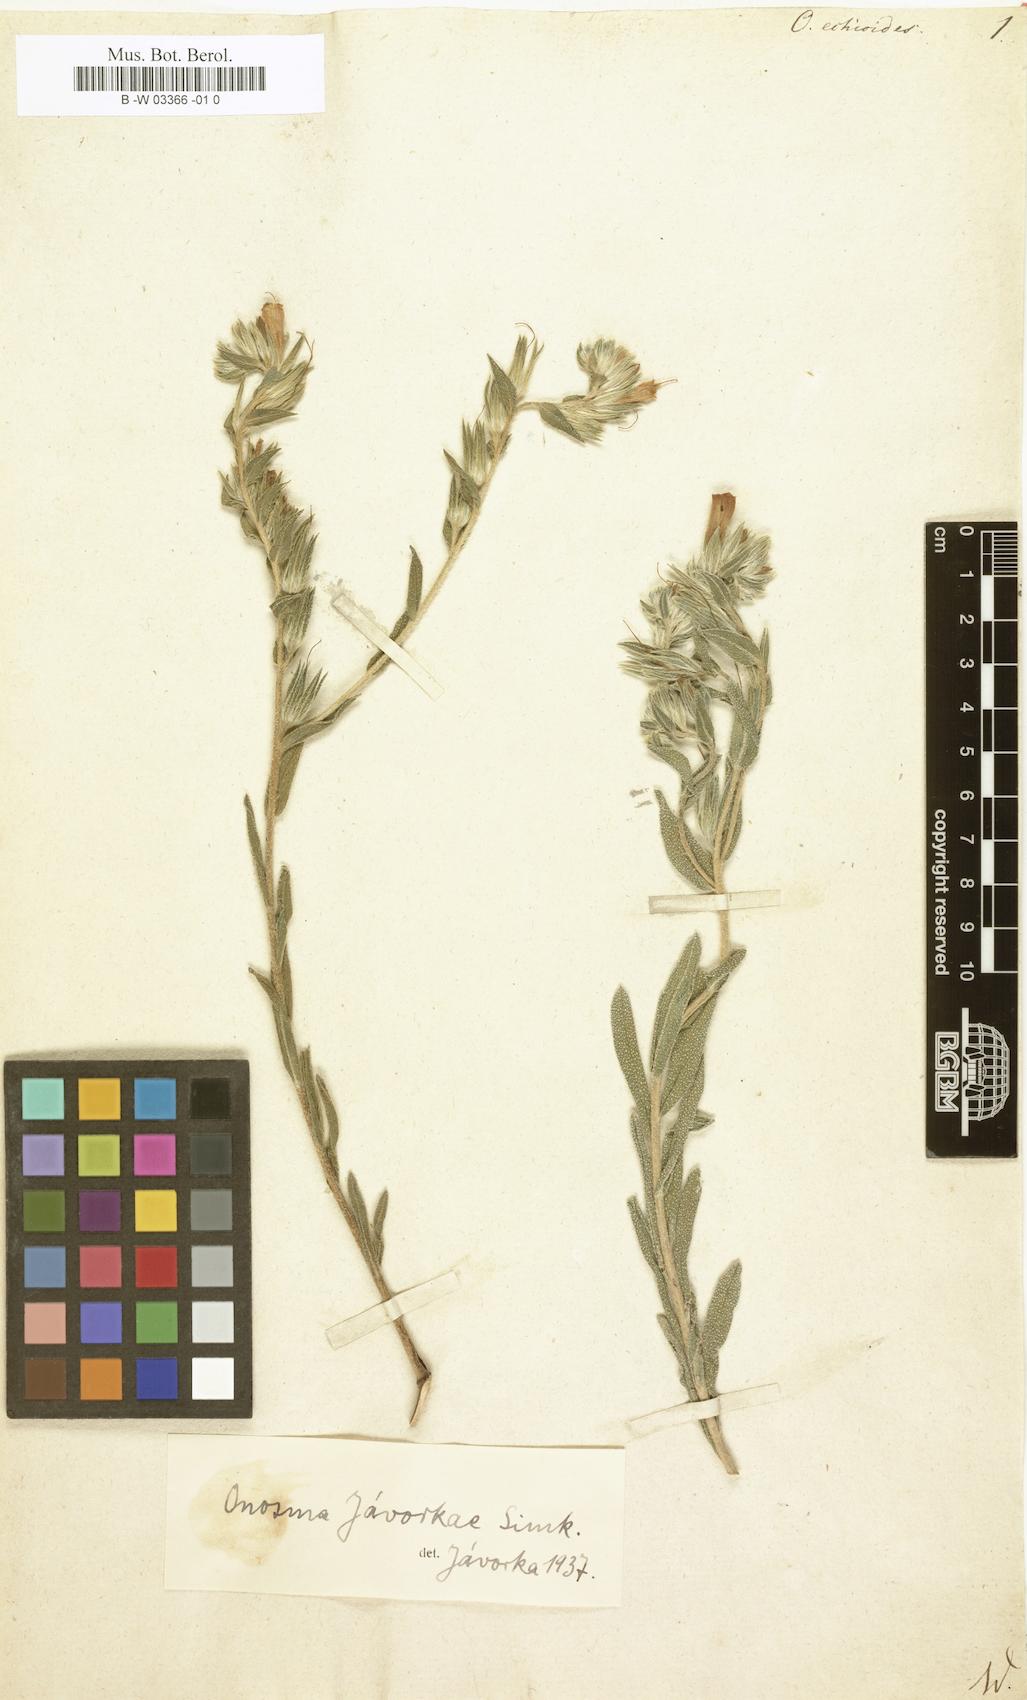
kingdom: Plantae
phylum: Tracheophyta
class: Magnoliopsida
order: Boraginales
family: Boraginaceae
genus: Onosma
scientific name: Onosma echioides
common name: Goldendrop
